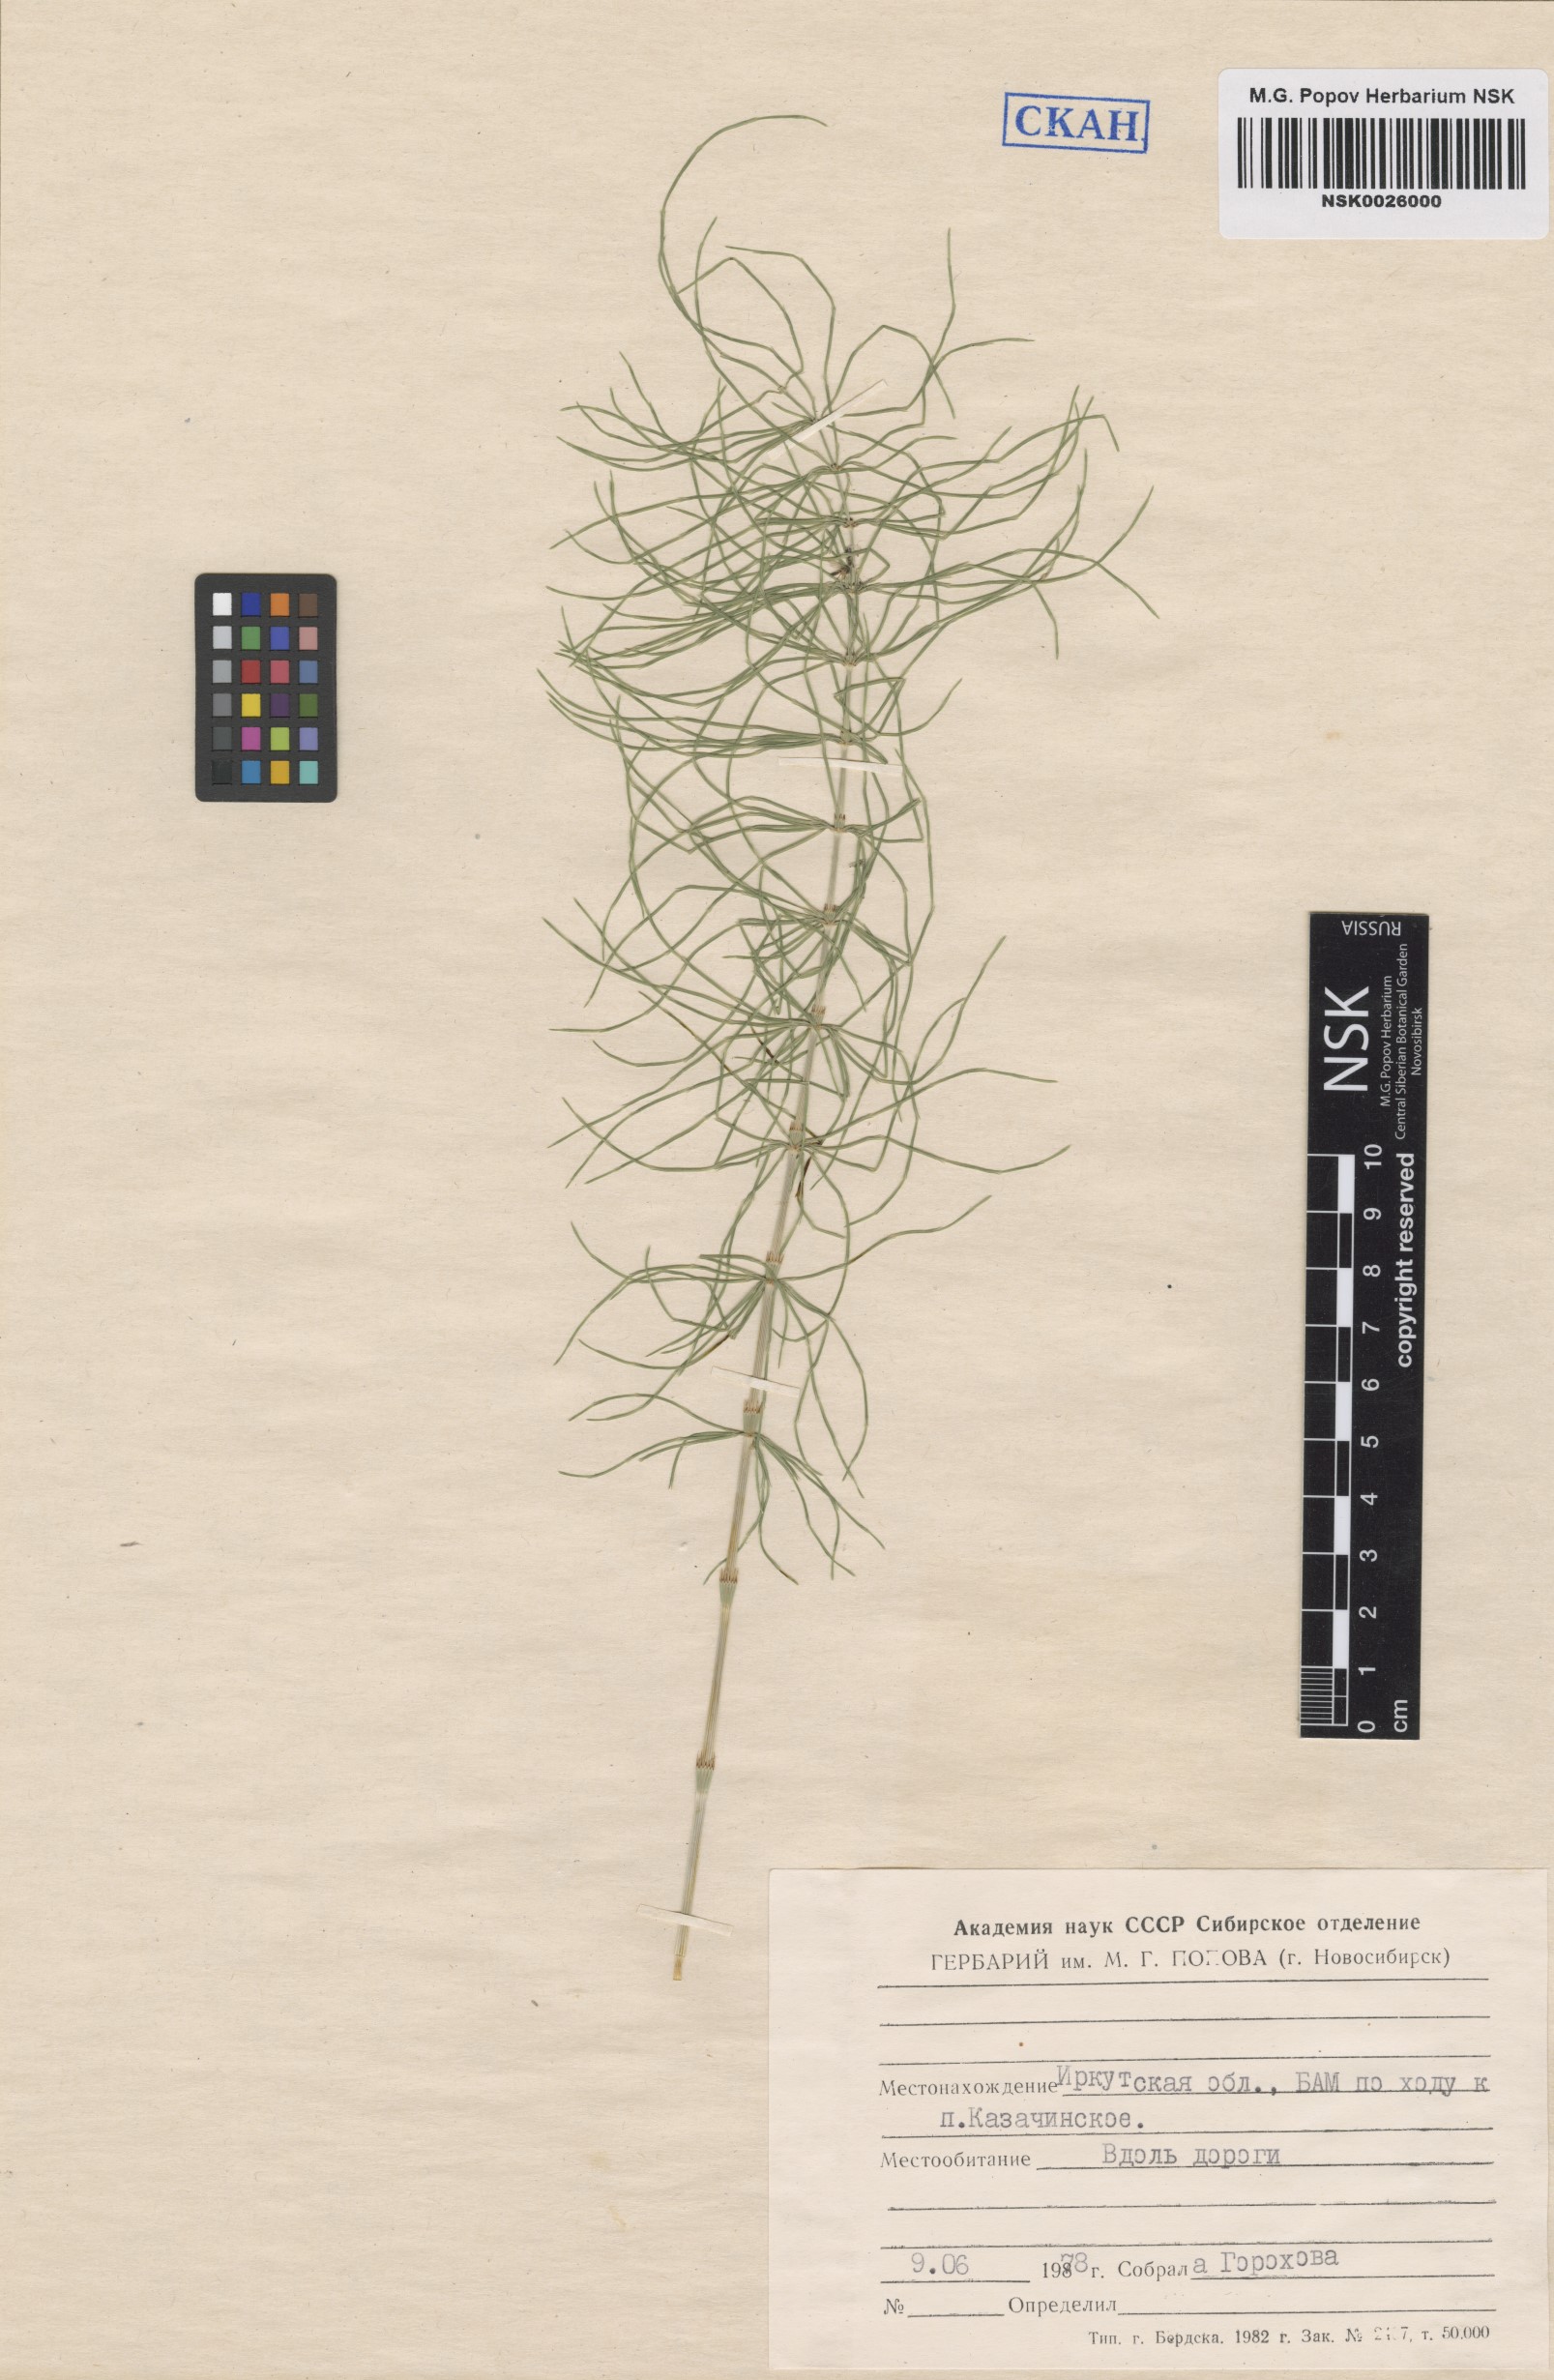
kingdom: Plantae
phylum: Tracheophyta
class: Polypodiopsida
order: Equisetales
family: Equisetaceae
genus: Equisetum
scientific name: Equisetum pratense
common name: Meadow horsetail
